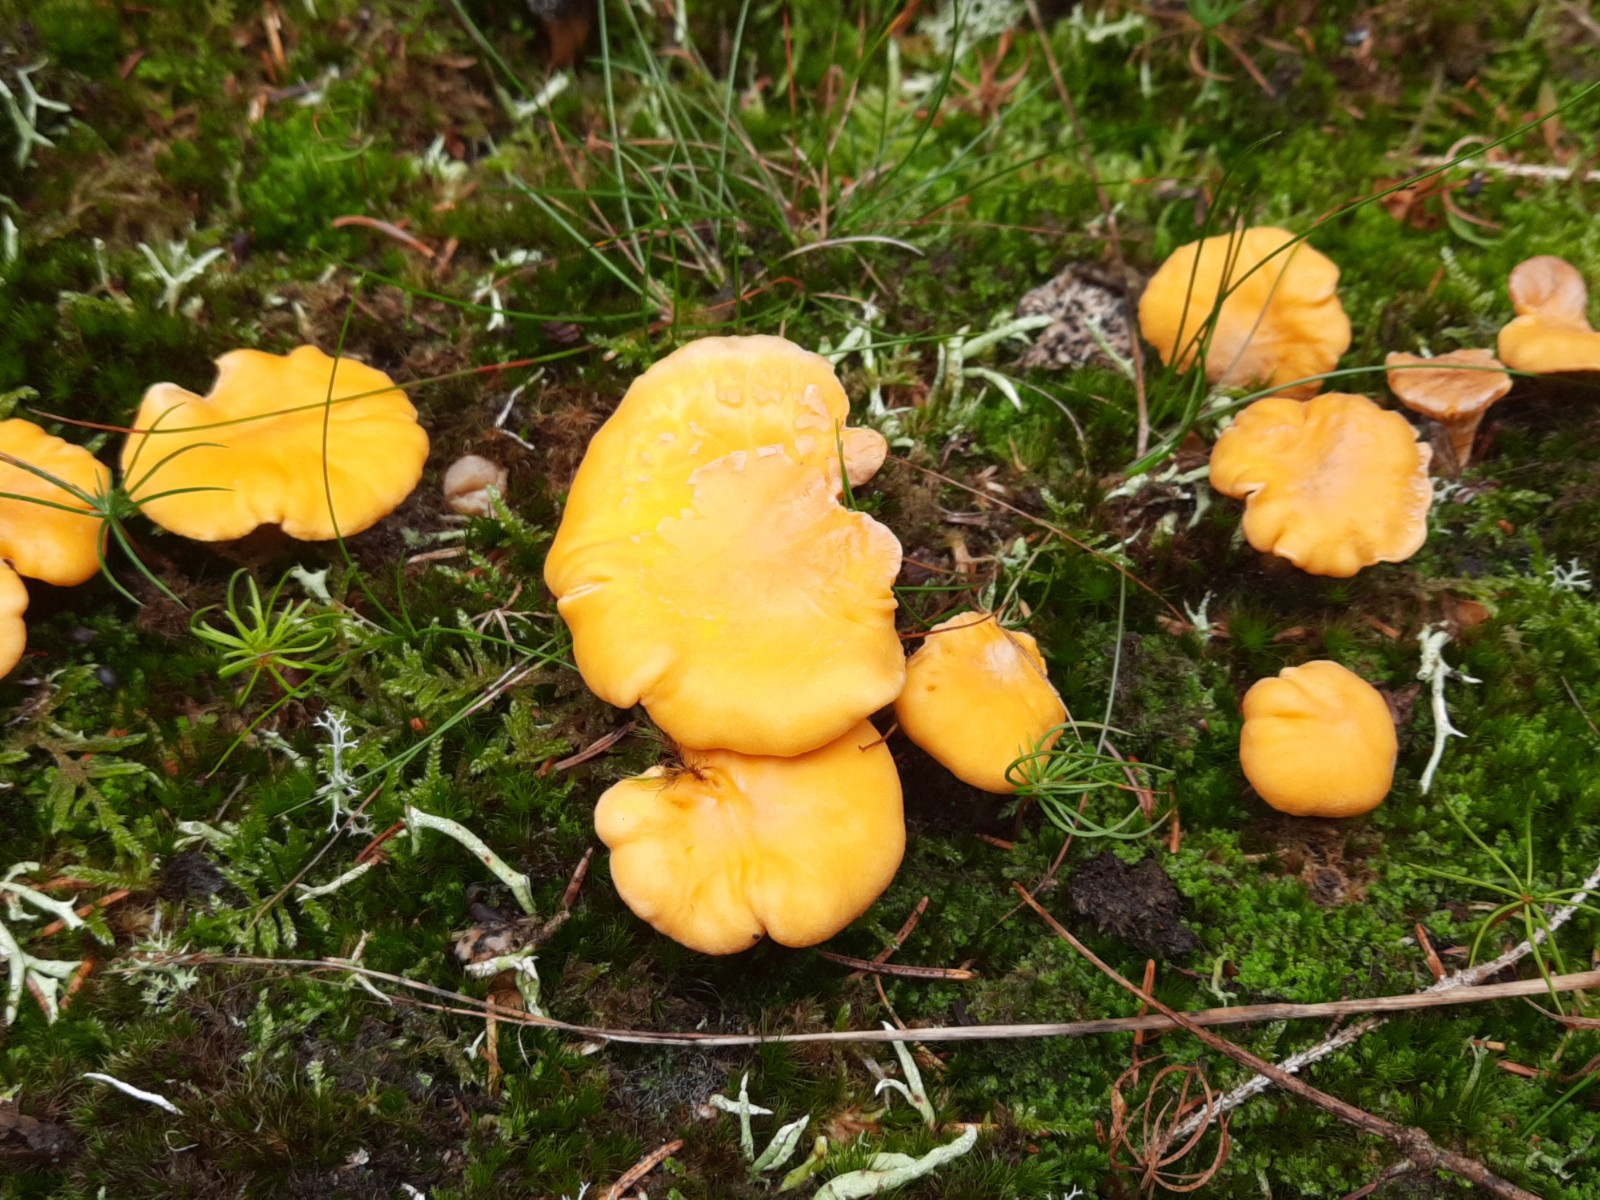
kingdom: Fungi
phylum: Basidiomycota
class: Agaricomycetes
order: Cantharellales
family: Hydnaceae
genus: Cantharellus
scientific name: Cantharellus cibarius
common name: almindelig kantarel
